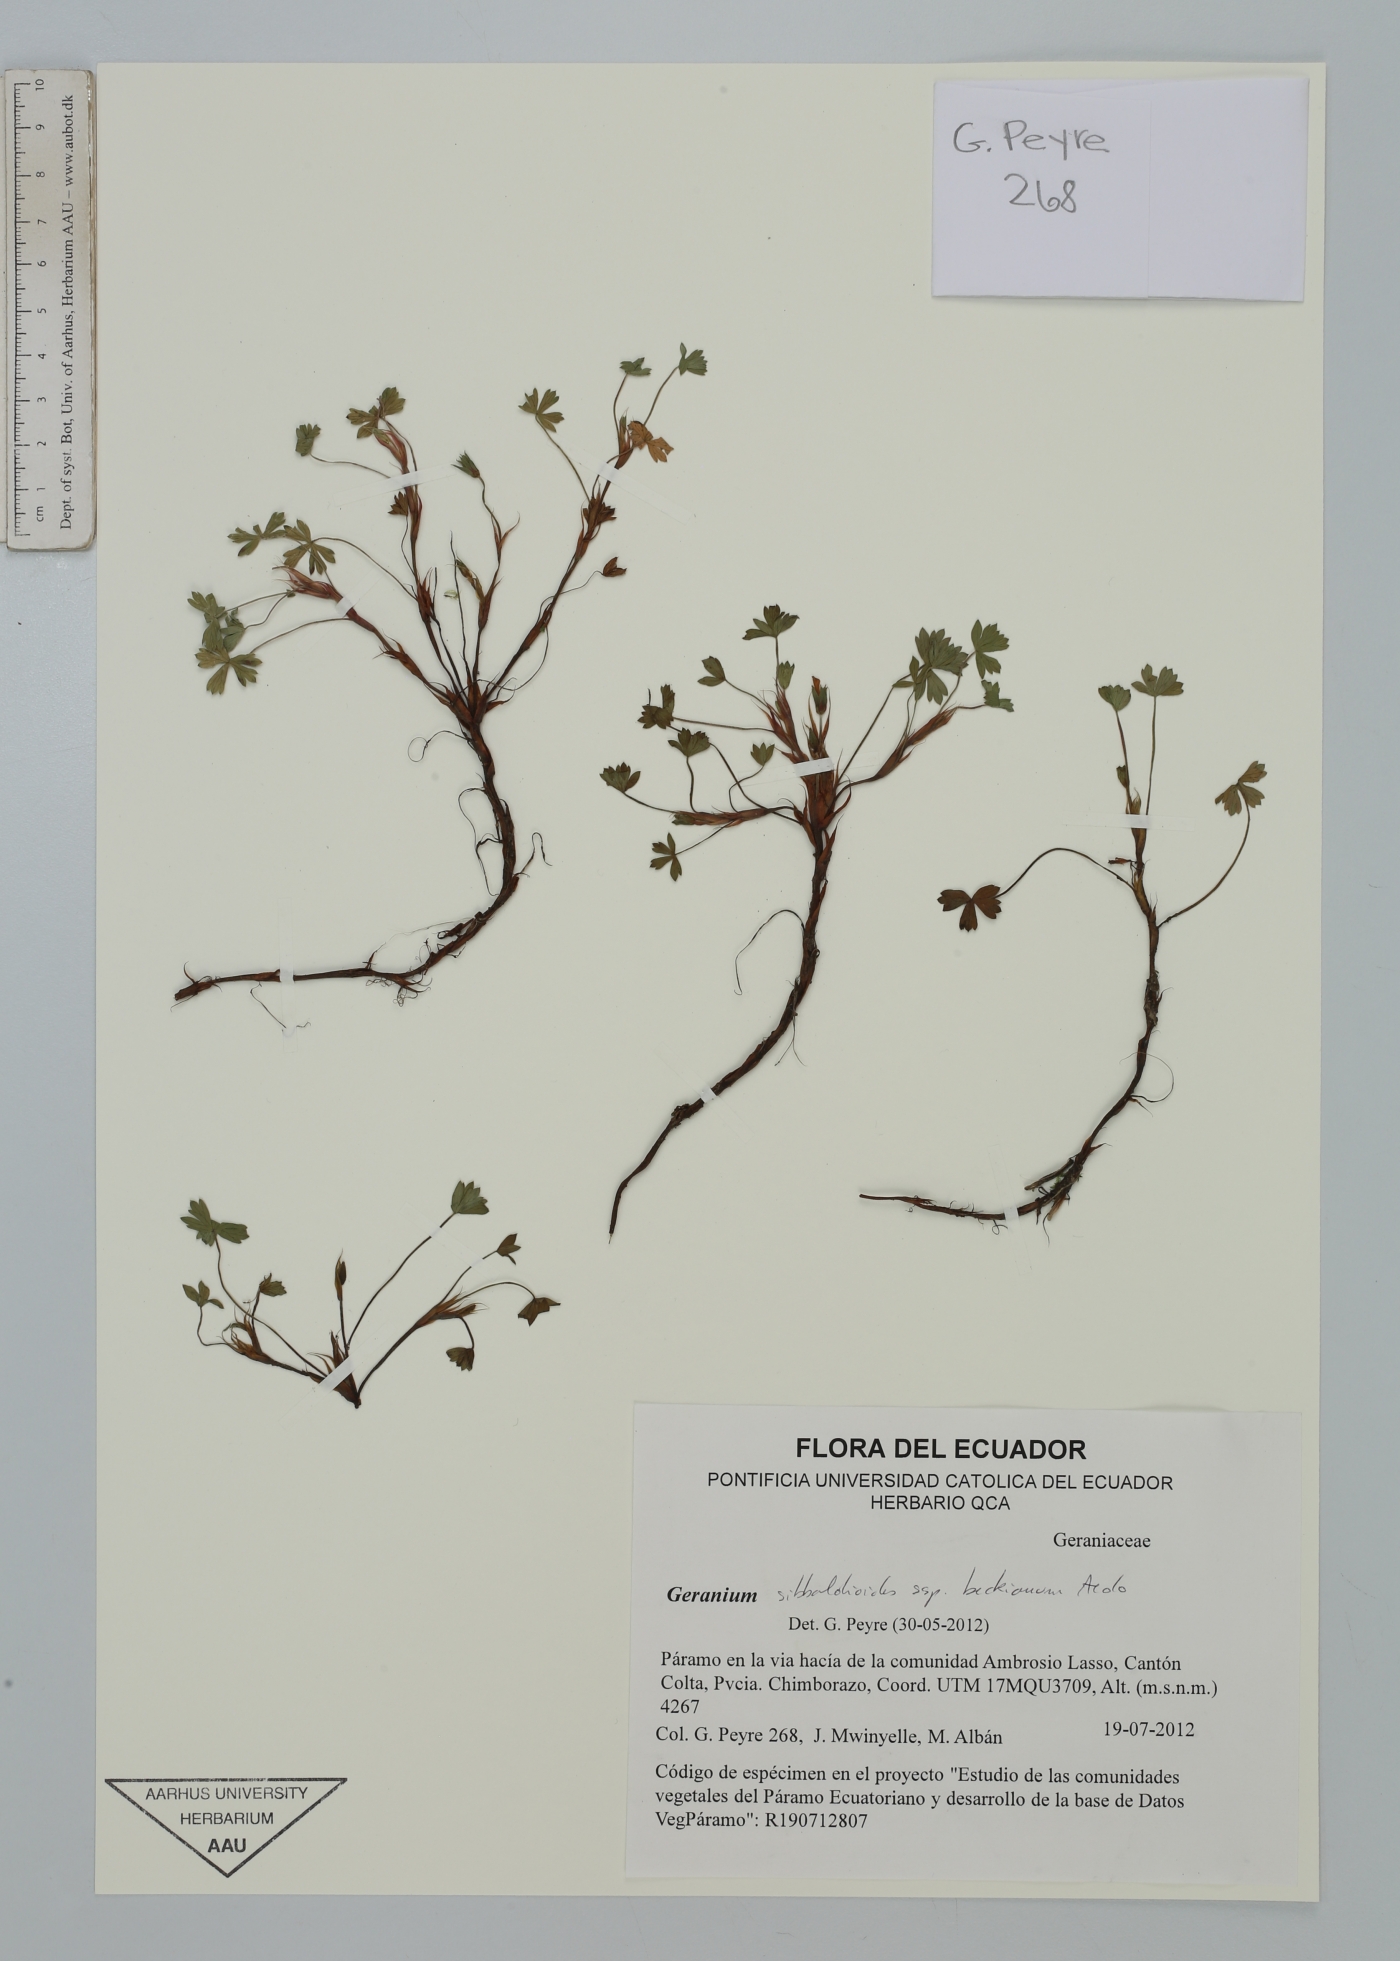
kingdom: Plantae
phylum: Tracheophyta
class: Magnoliopsida
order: Geraniales
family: Geraniaceae
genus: Geranium
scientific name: Geranium sibbaldioides
